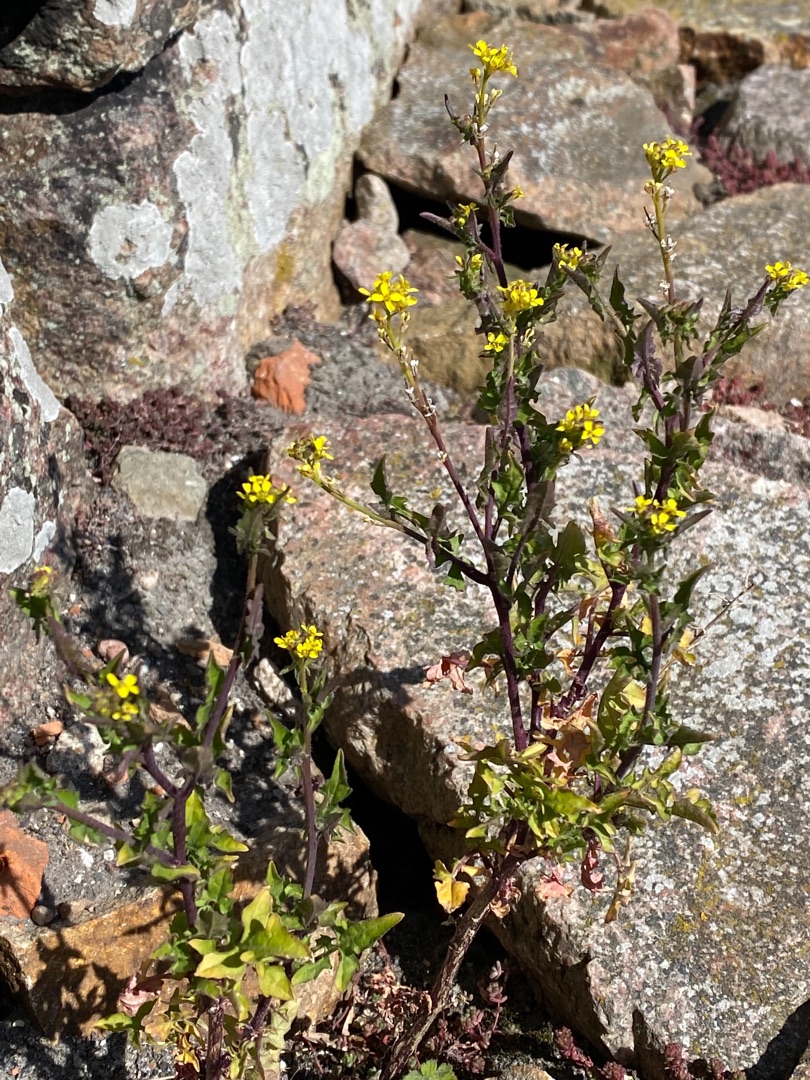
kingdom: Plantae
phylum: Tracheophyta
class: Magnoliopsida
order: Brassicales
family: Brassicaceae
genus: Sisymbrium
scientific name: Sisymbrium officinale
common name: Rank vejsennep
